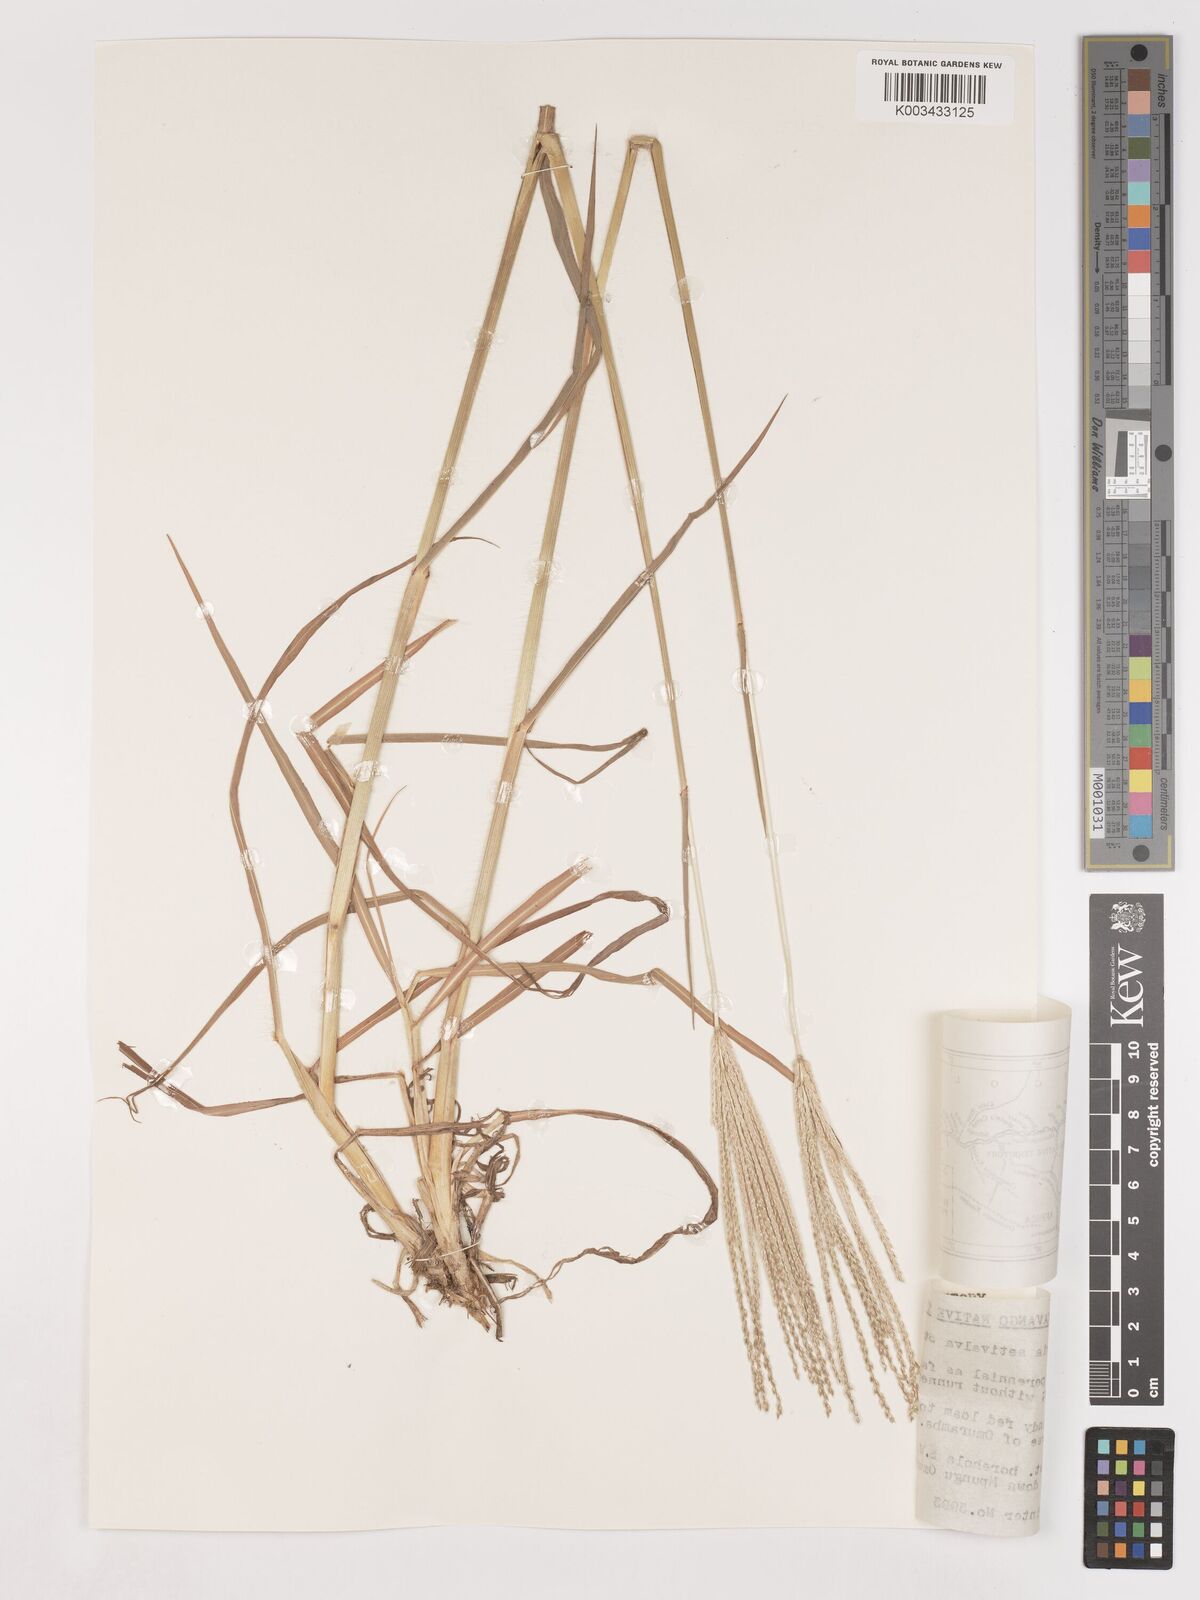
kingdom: Plantae
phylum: Tracheophyta
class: Liliopsida
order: Poales
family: Poaceae
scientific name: Poaceae
